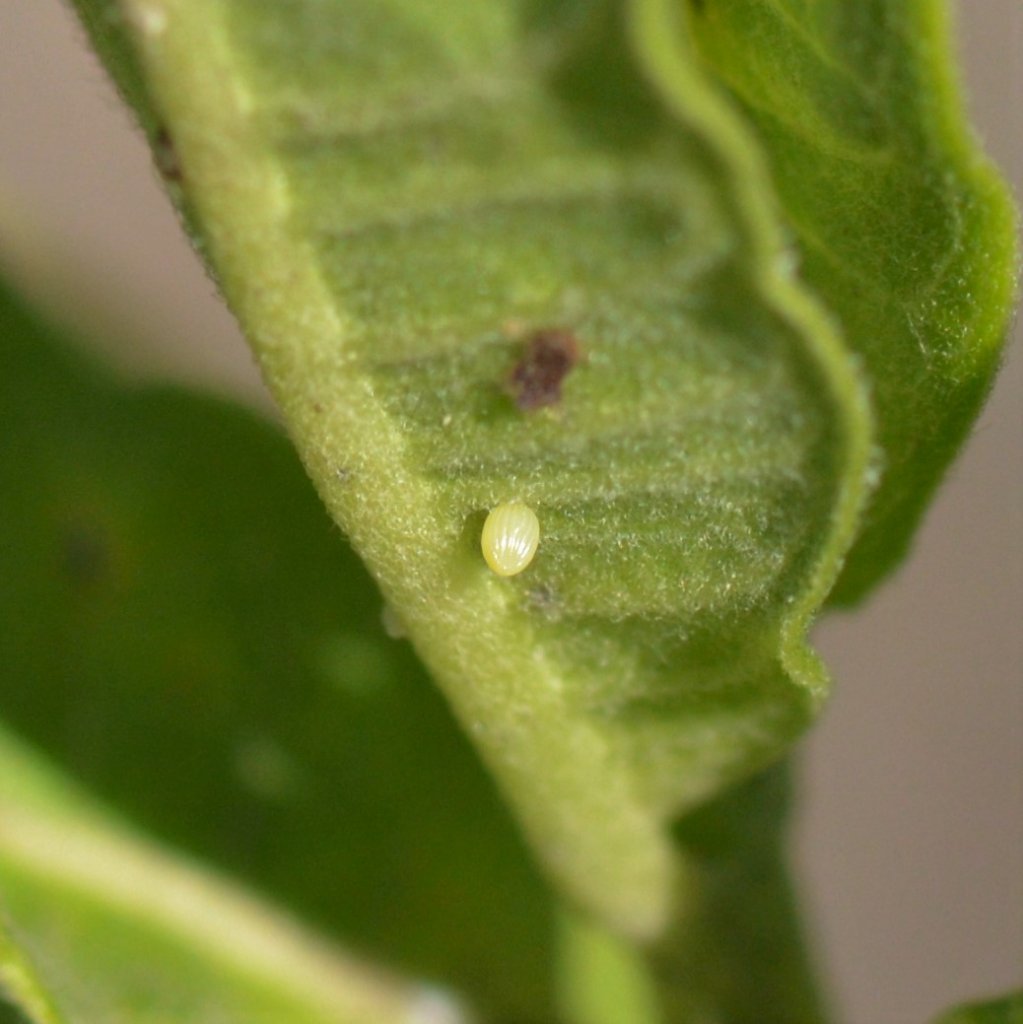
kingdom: Animalia
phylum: Arthropoda
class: Insecta
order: Lepidoptera
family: Nymphalidae
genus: Danaus
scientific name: Danaus plexippus
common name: Monarch
